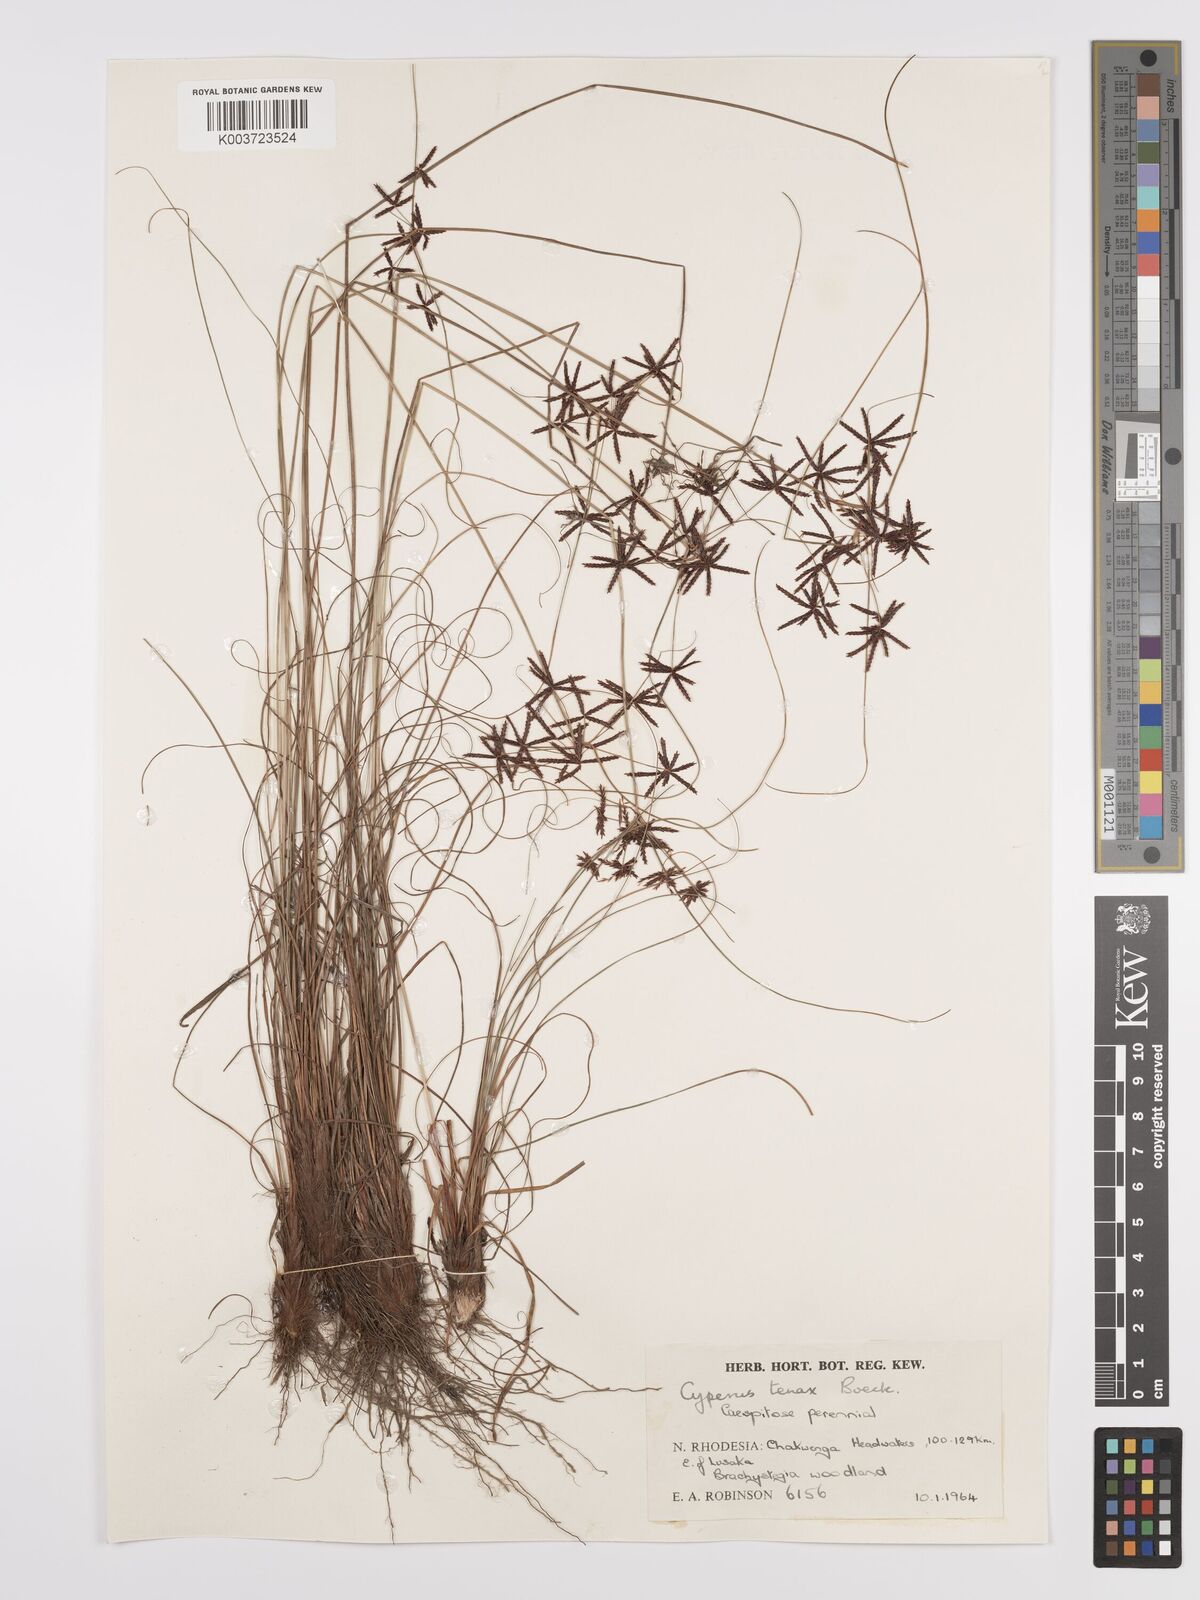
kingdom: Plantae
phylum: Tracheophyta
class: Liliopsida
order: Poales
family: Cyperaceae
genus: Cyperus
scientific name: Cyperus tenax
